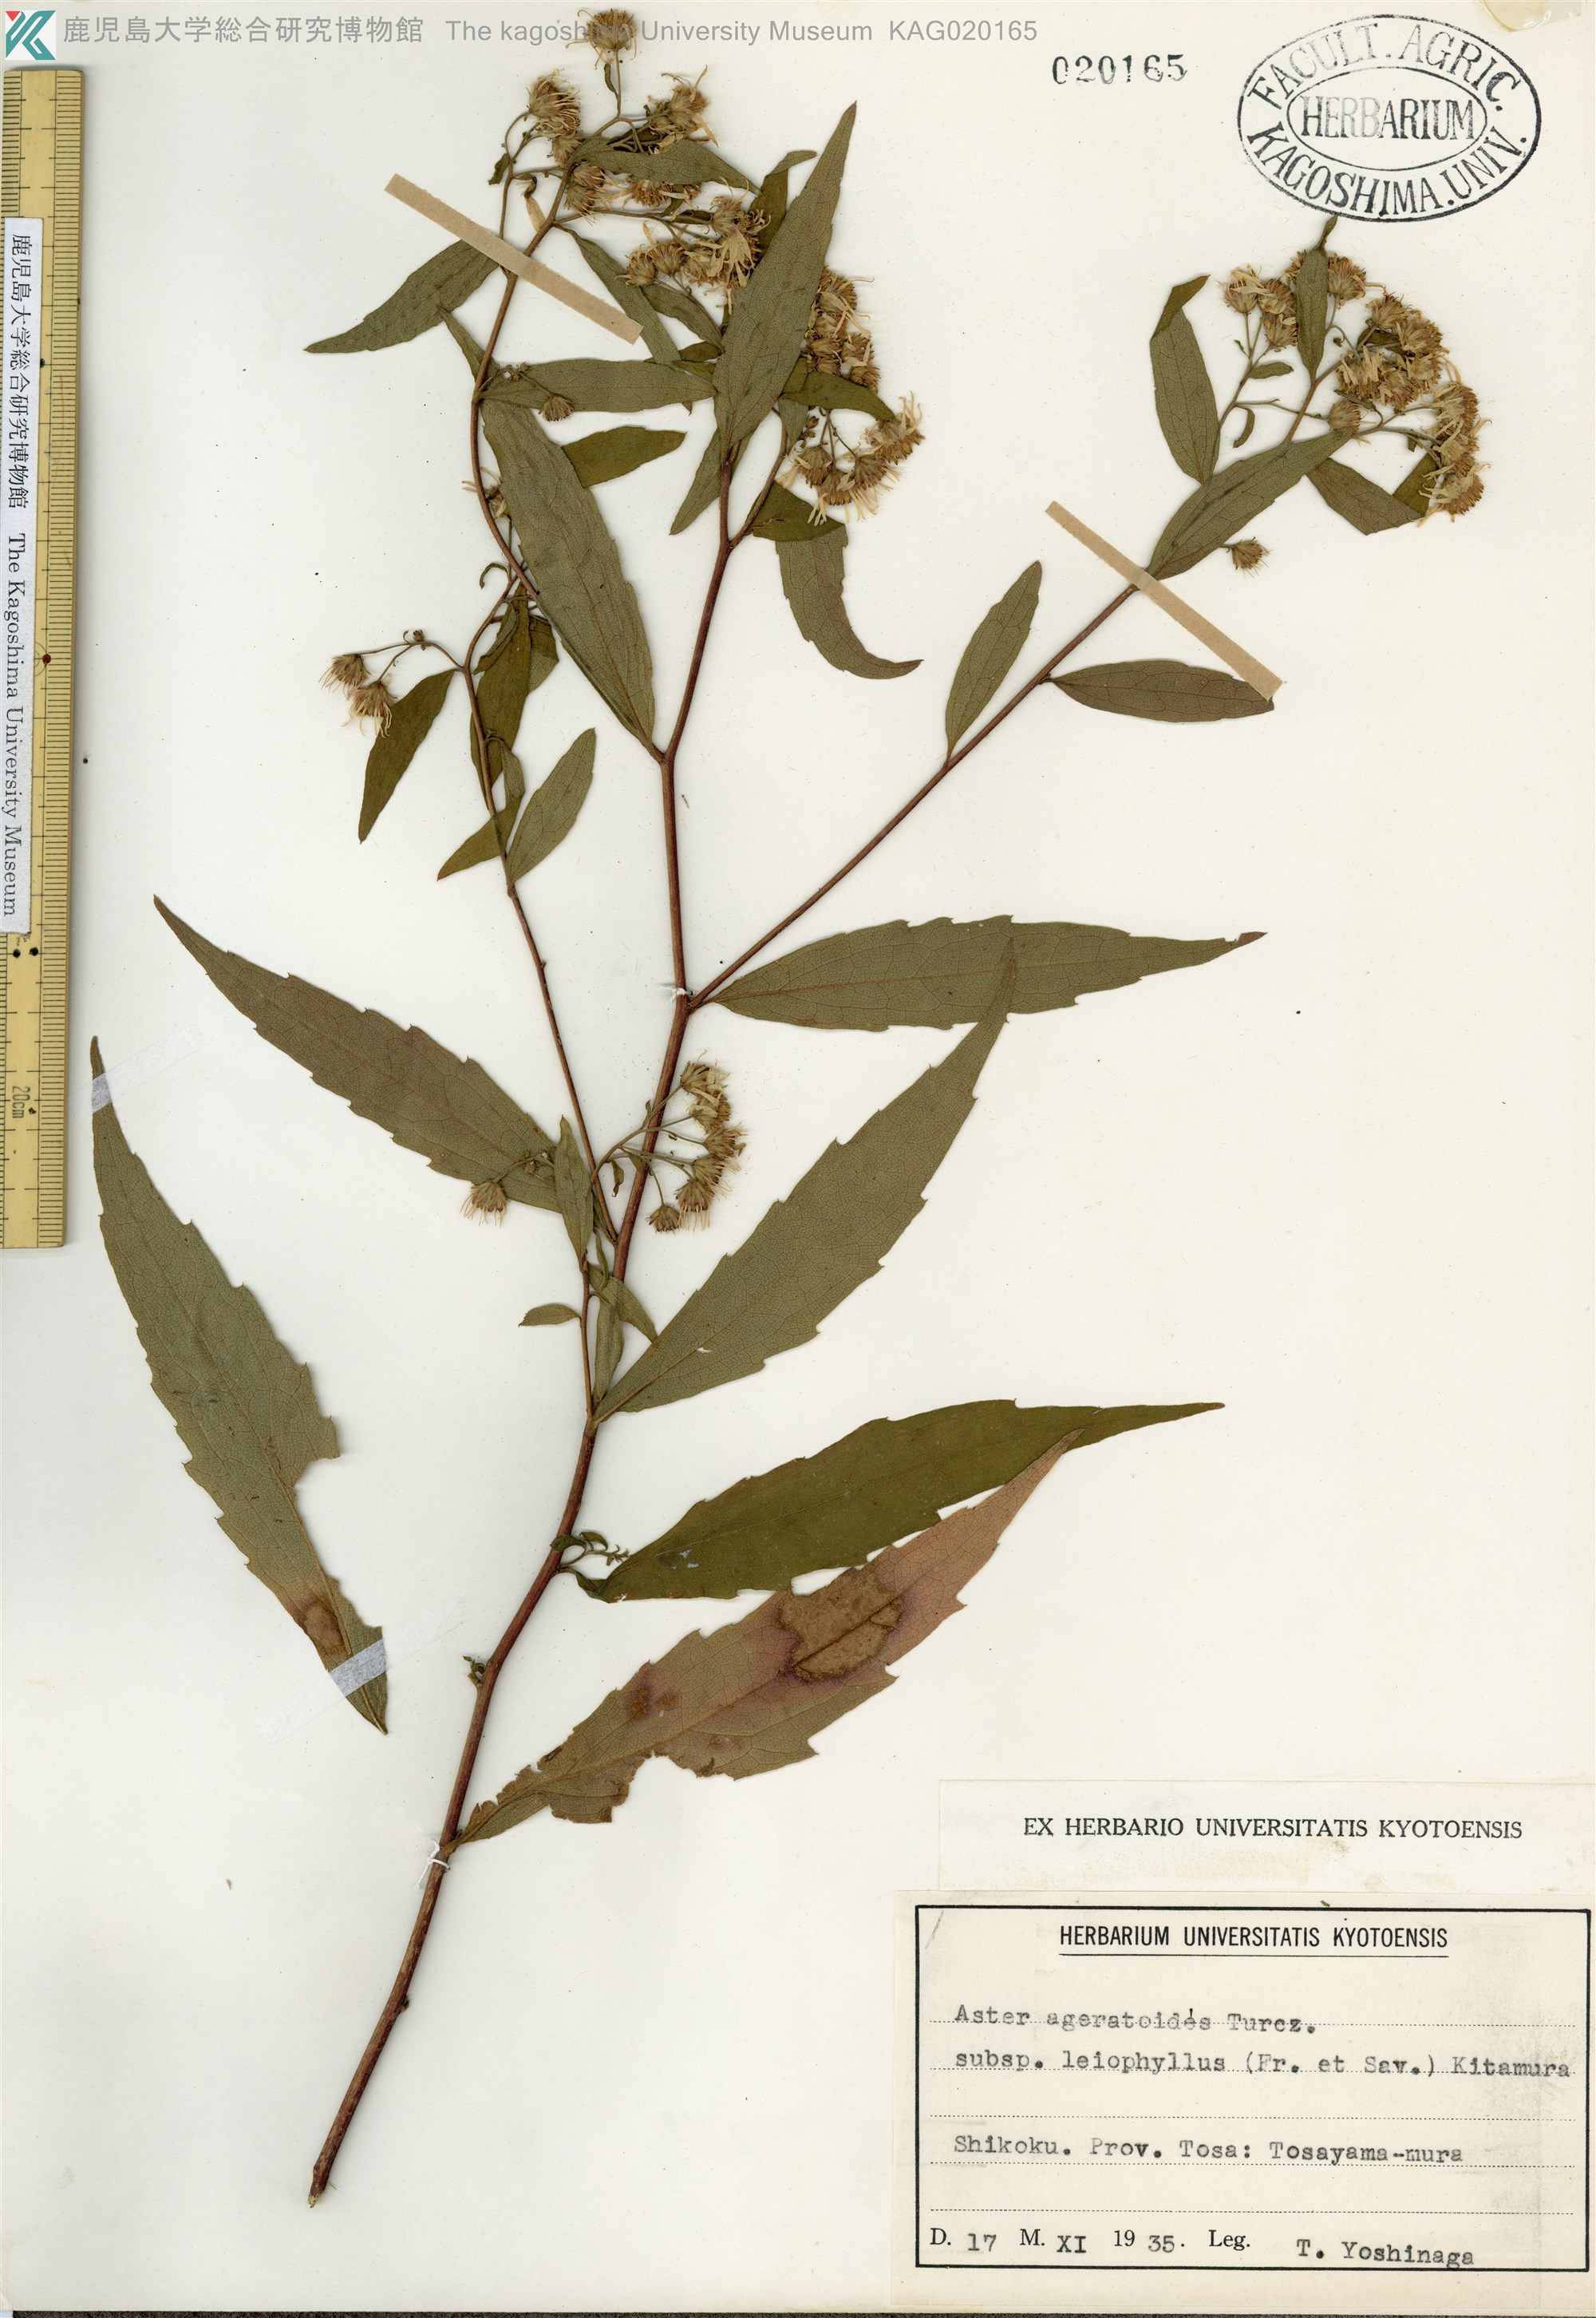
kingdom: Plantae
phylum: Tracheophyta
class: Magnoliopsida
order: Asterales
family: Asteraceae
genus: Aster
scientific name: Aster ageratoides
